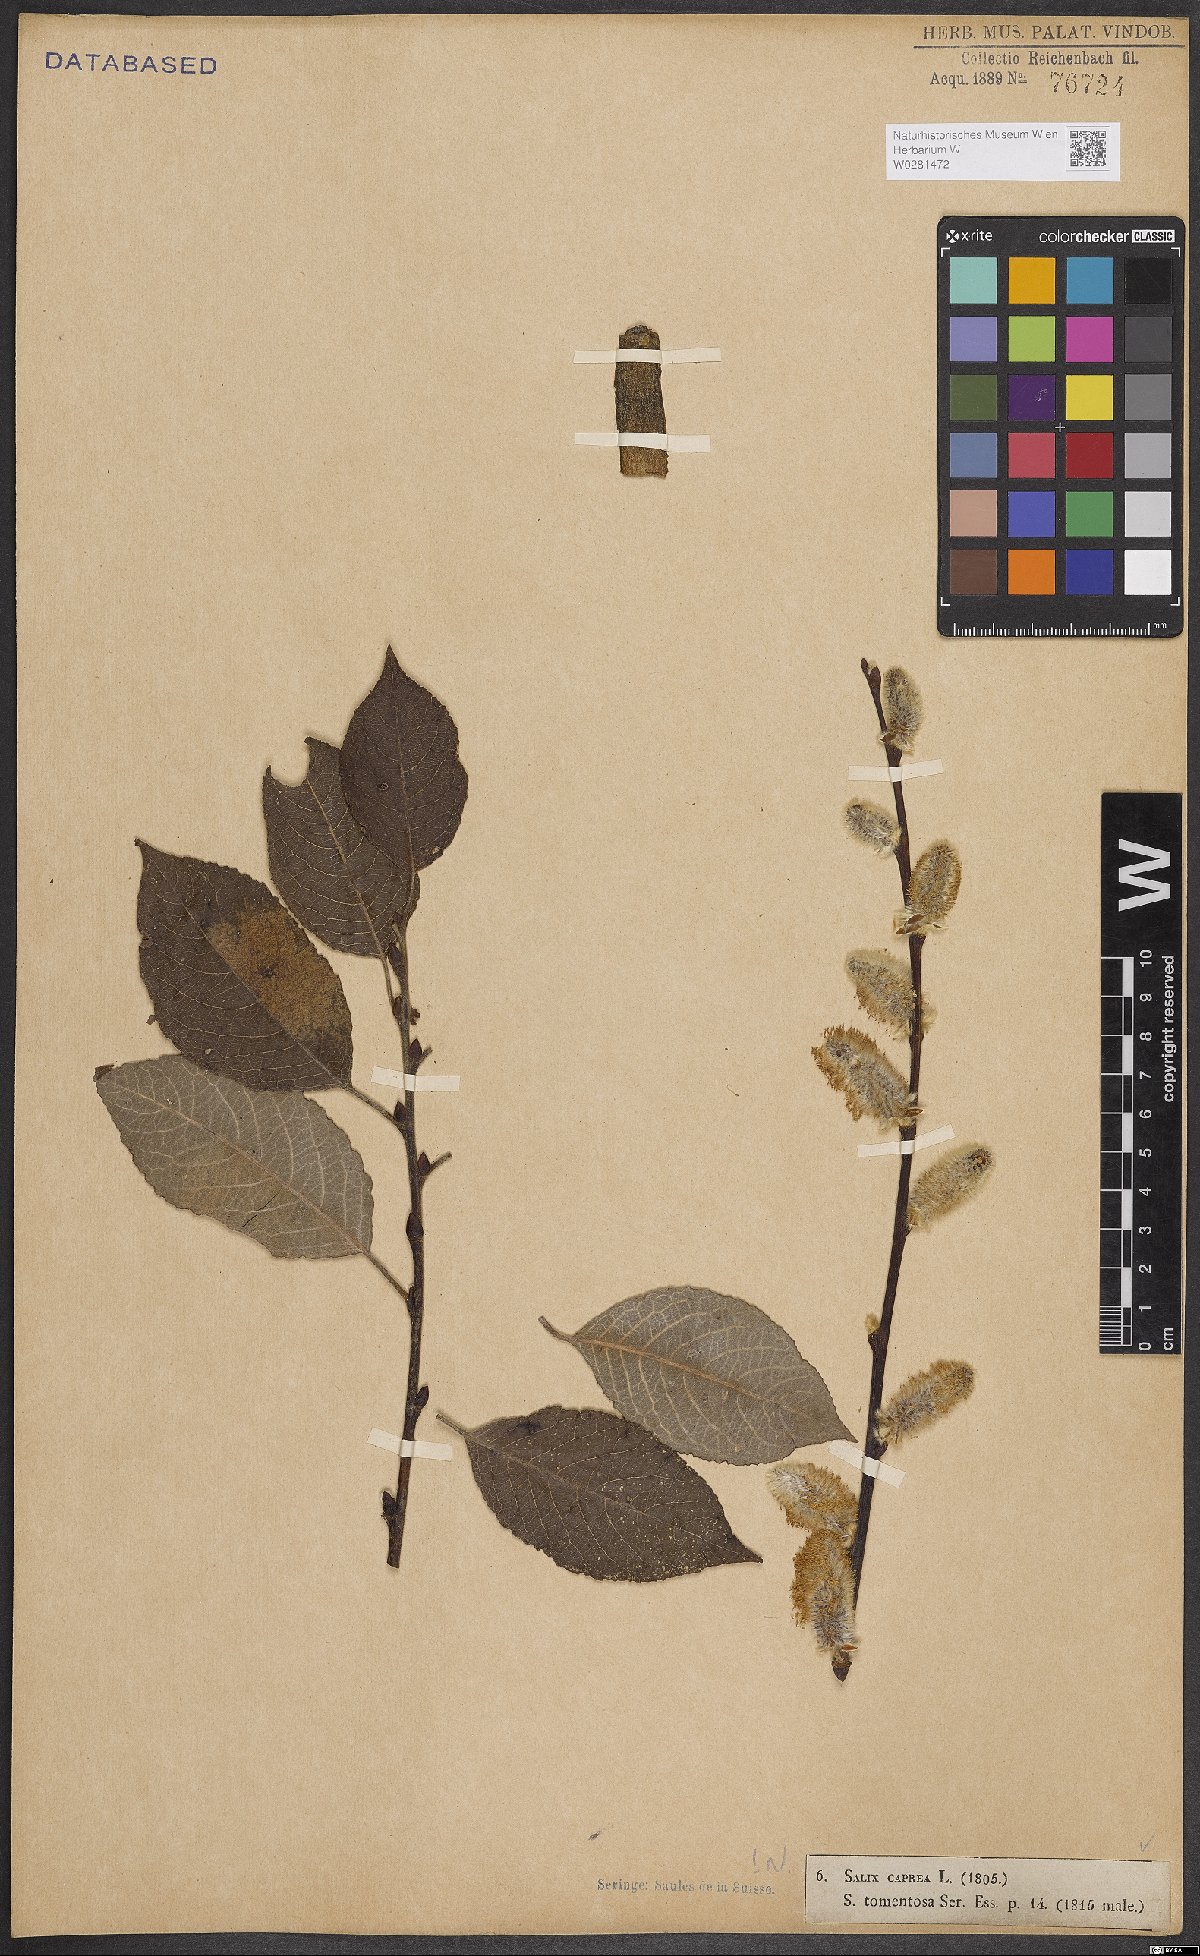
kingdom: Plantae
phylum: Tracheophyta
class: Magnoliopsida
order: Malpighiales
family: Salicaceae
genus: Salix
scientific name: Salix caprea
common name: Goat willow
